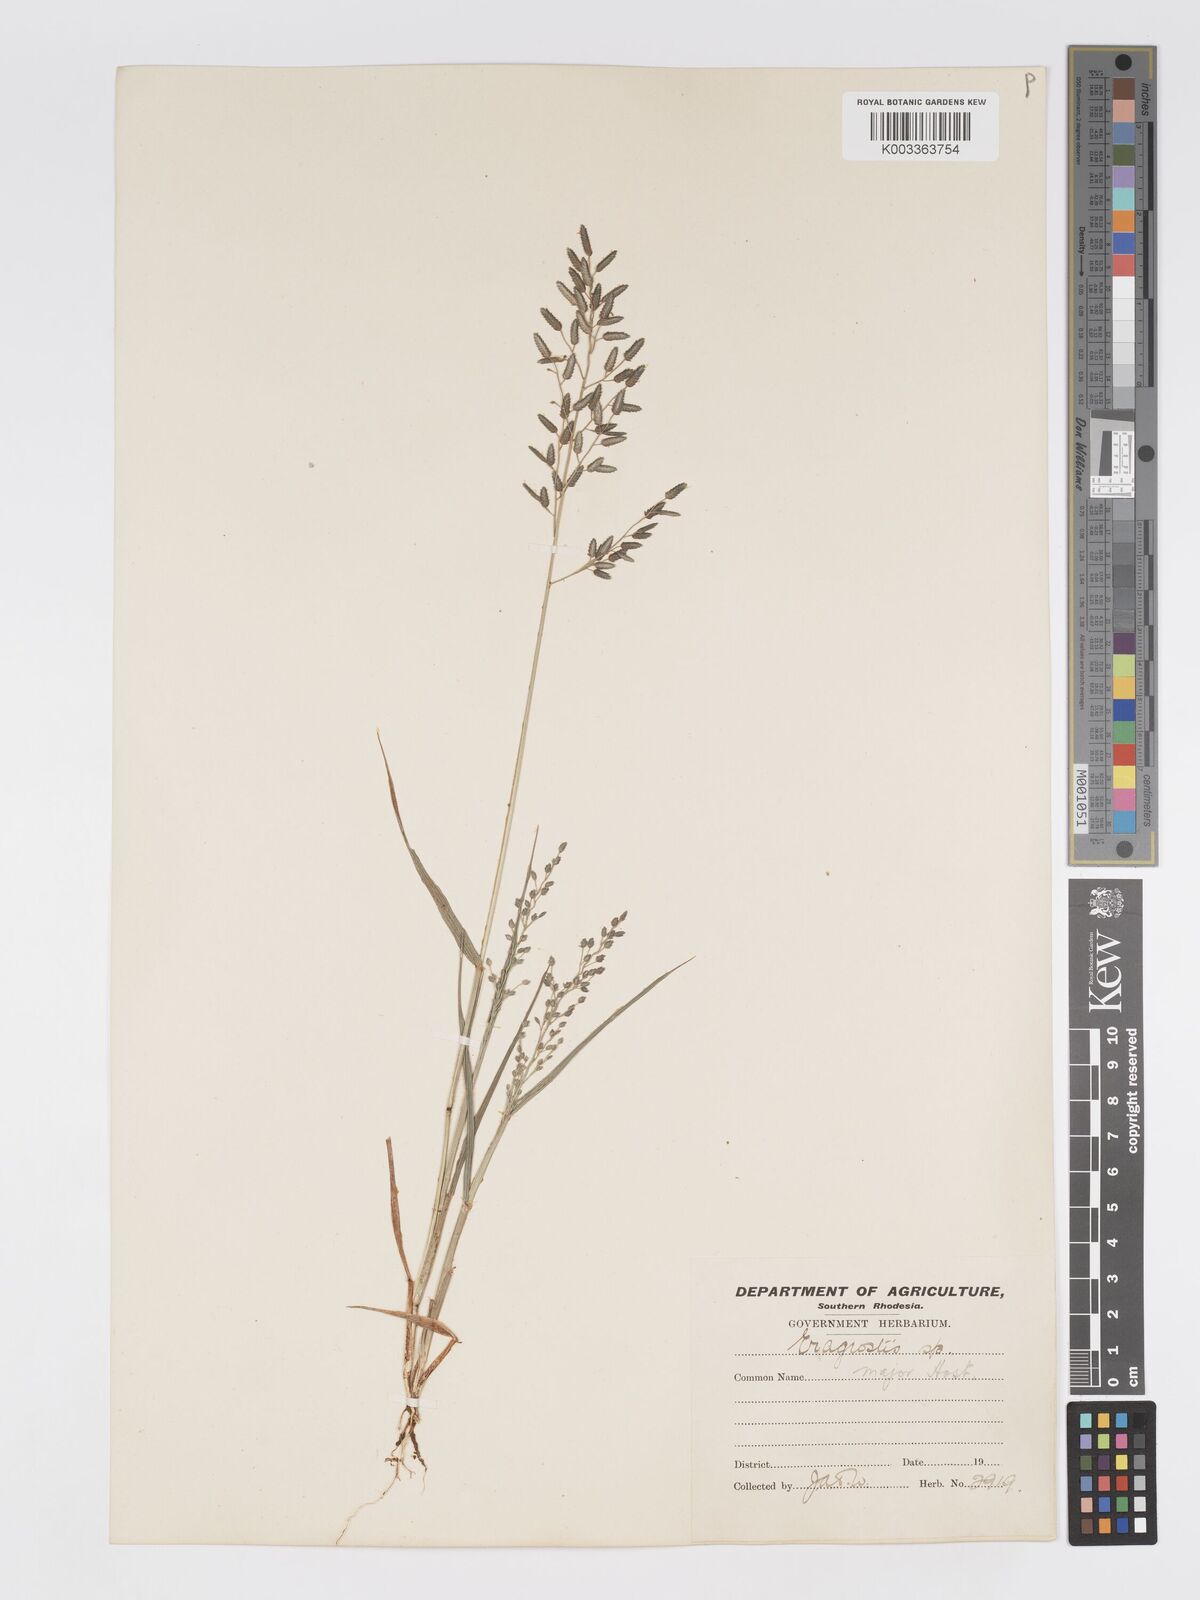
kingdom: Plantae
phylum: Tracheophyta
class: Liliopsida
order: Poales
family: Poaceae
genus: Eragrostis
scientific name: Eragrostis cilianensis
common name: Stinkgrass
